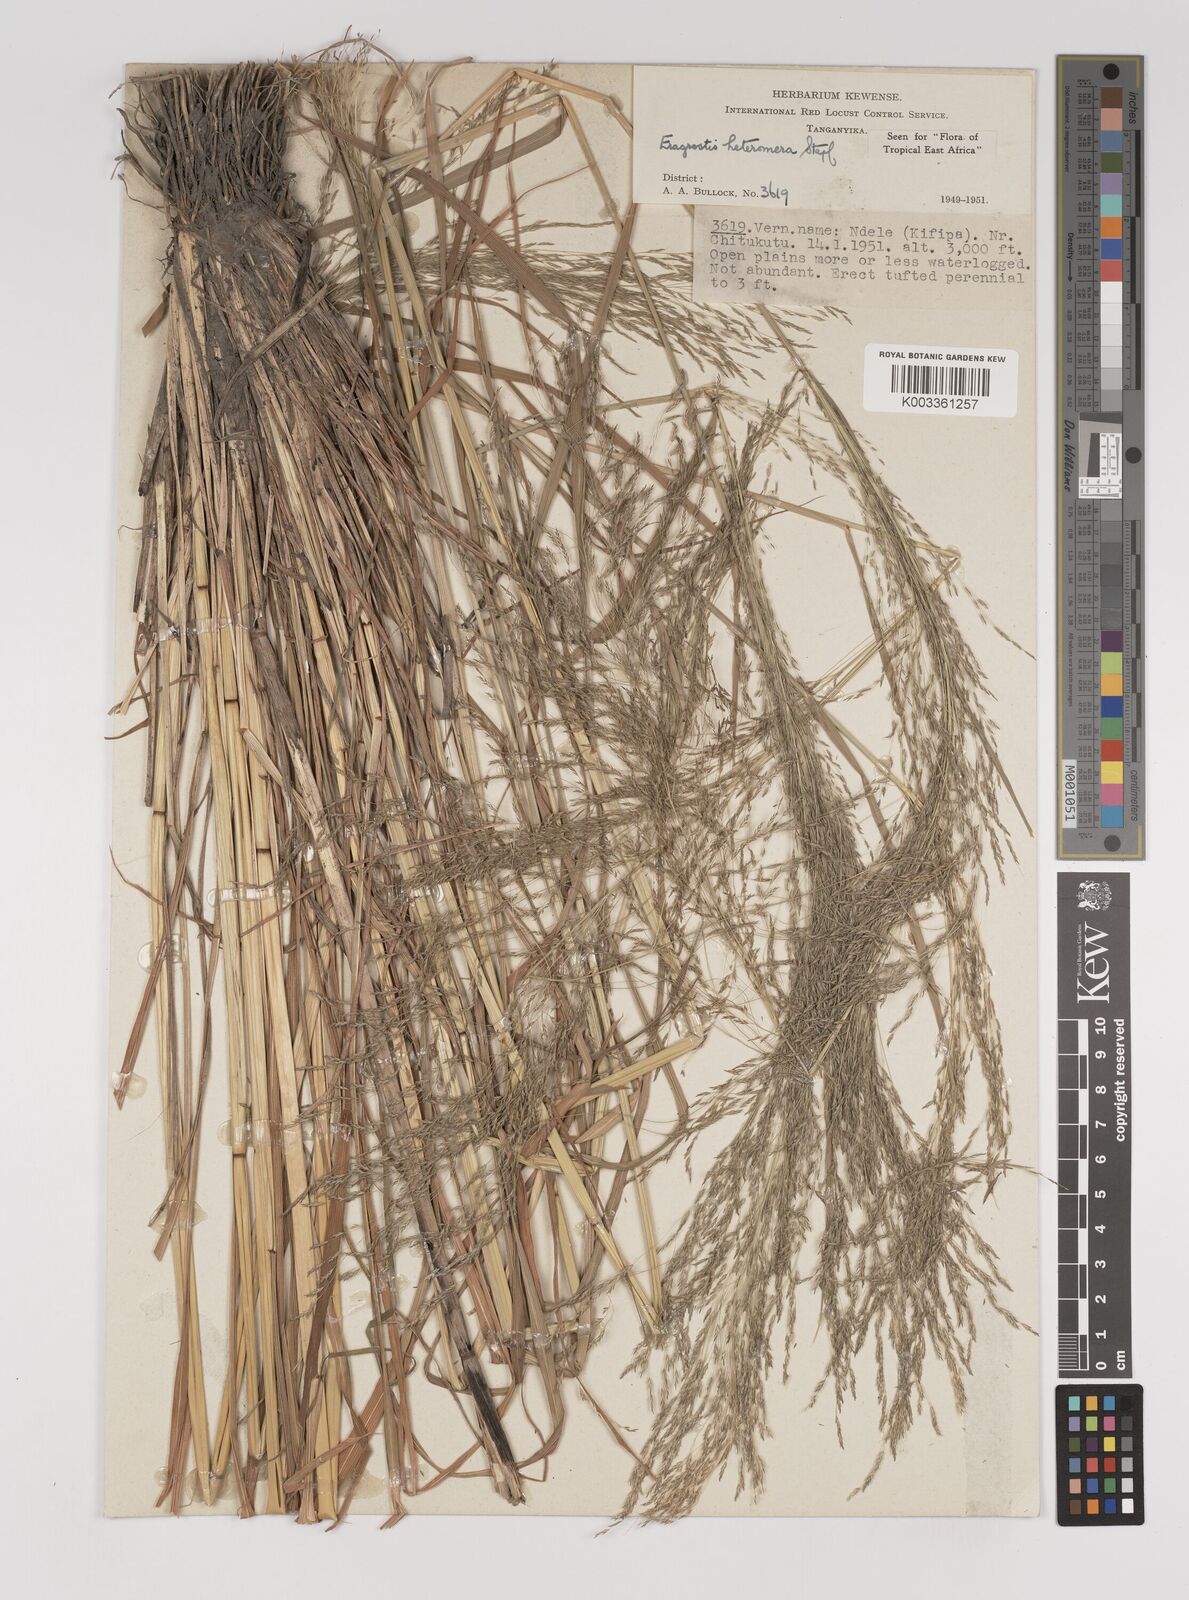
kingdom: Plantae
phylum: Tracheophyta
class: Liliopsida
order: Poales
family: Poaceae
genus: Eragrostis
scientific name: Eragrostis heteromera
